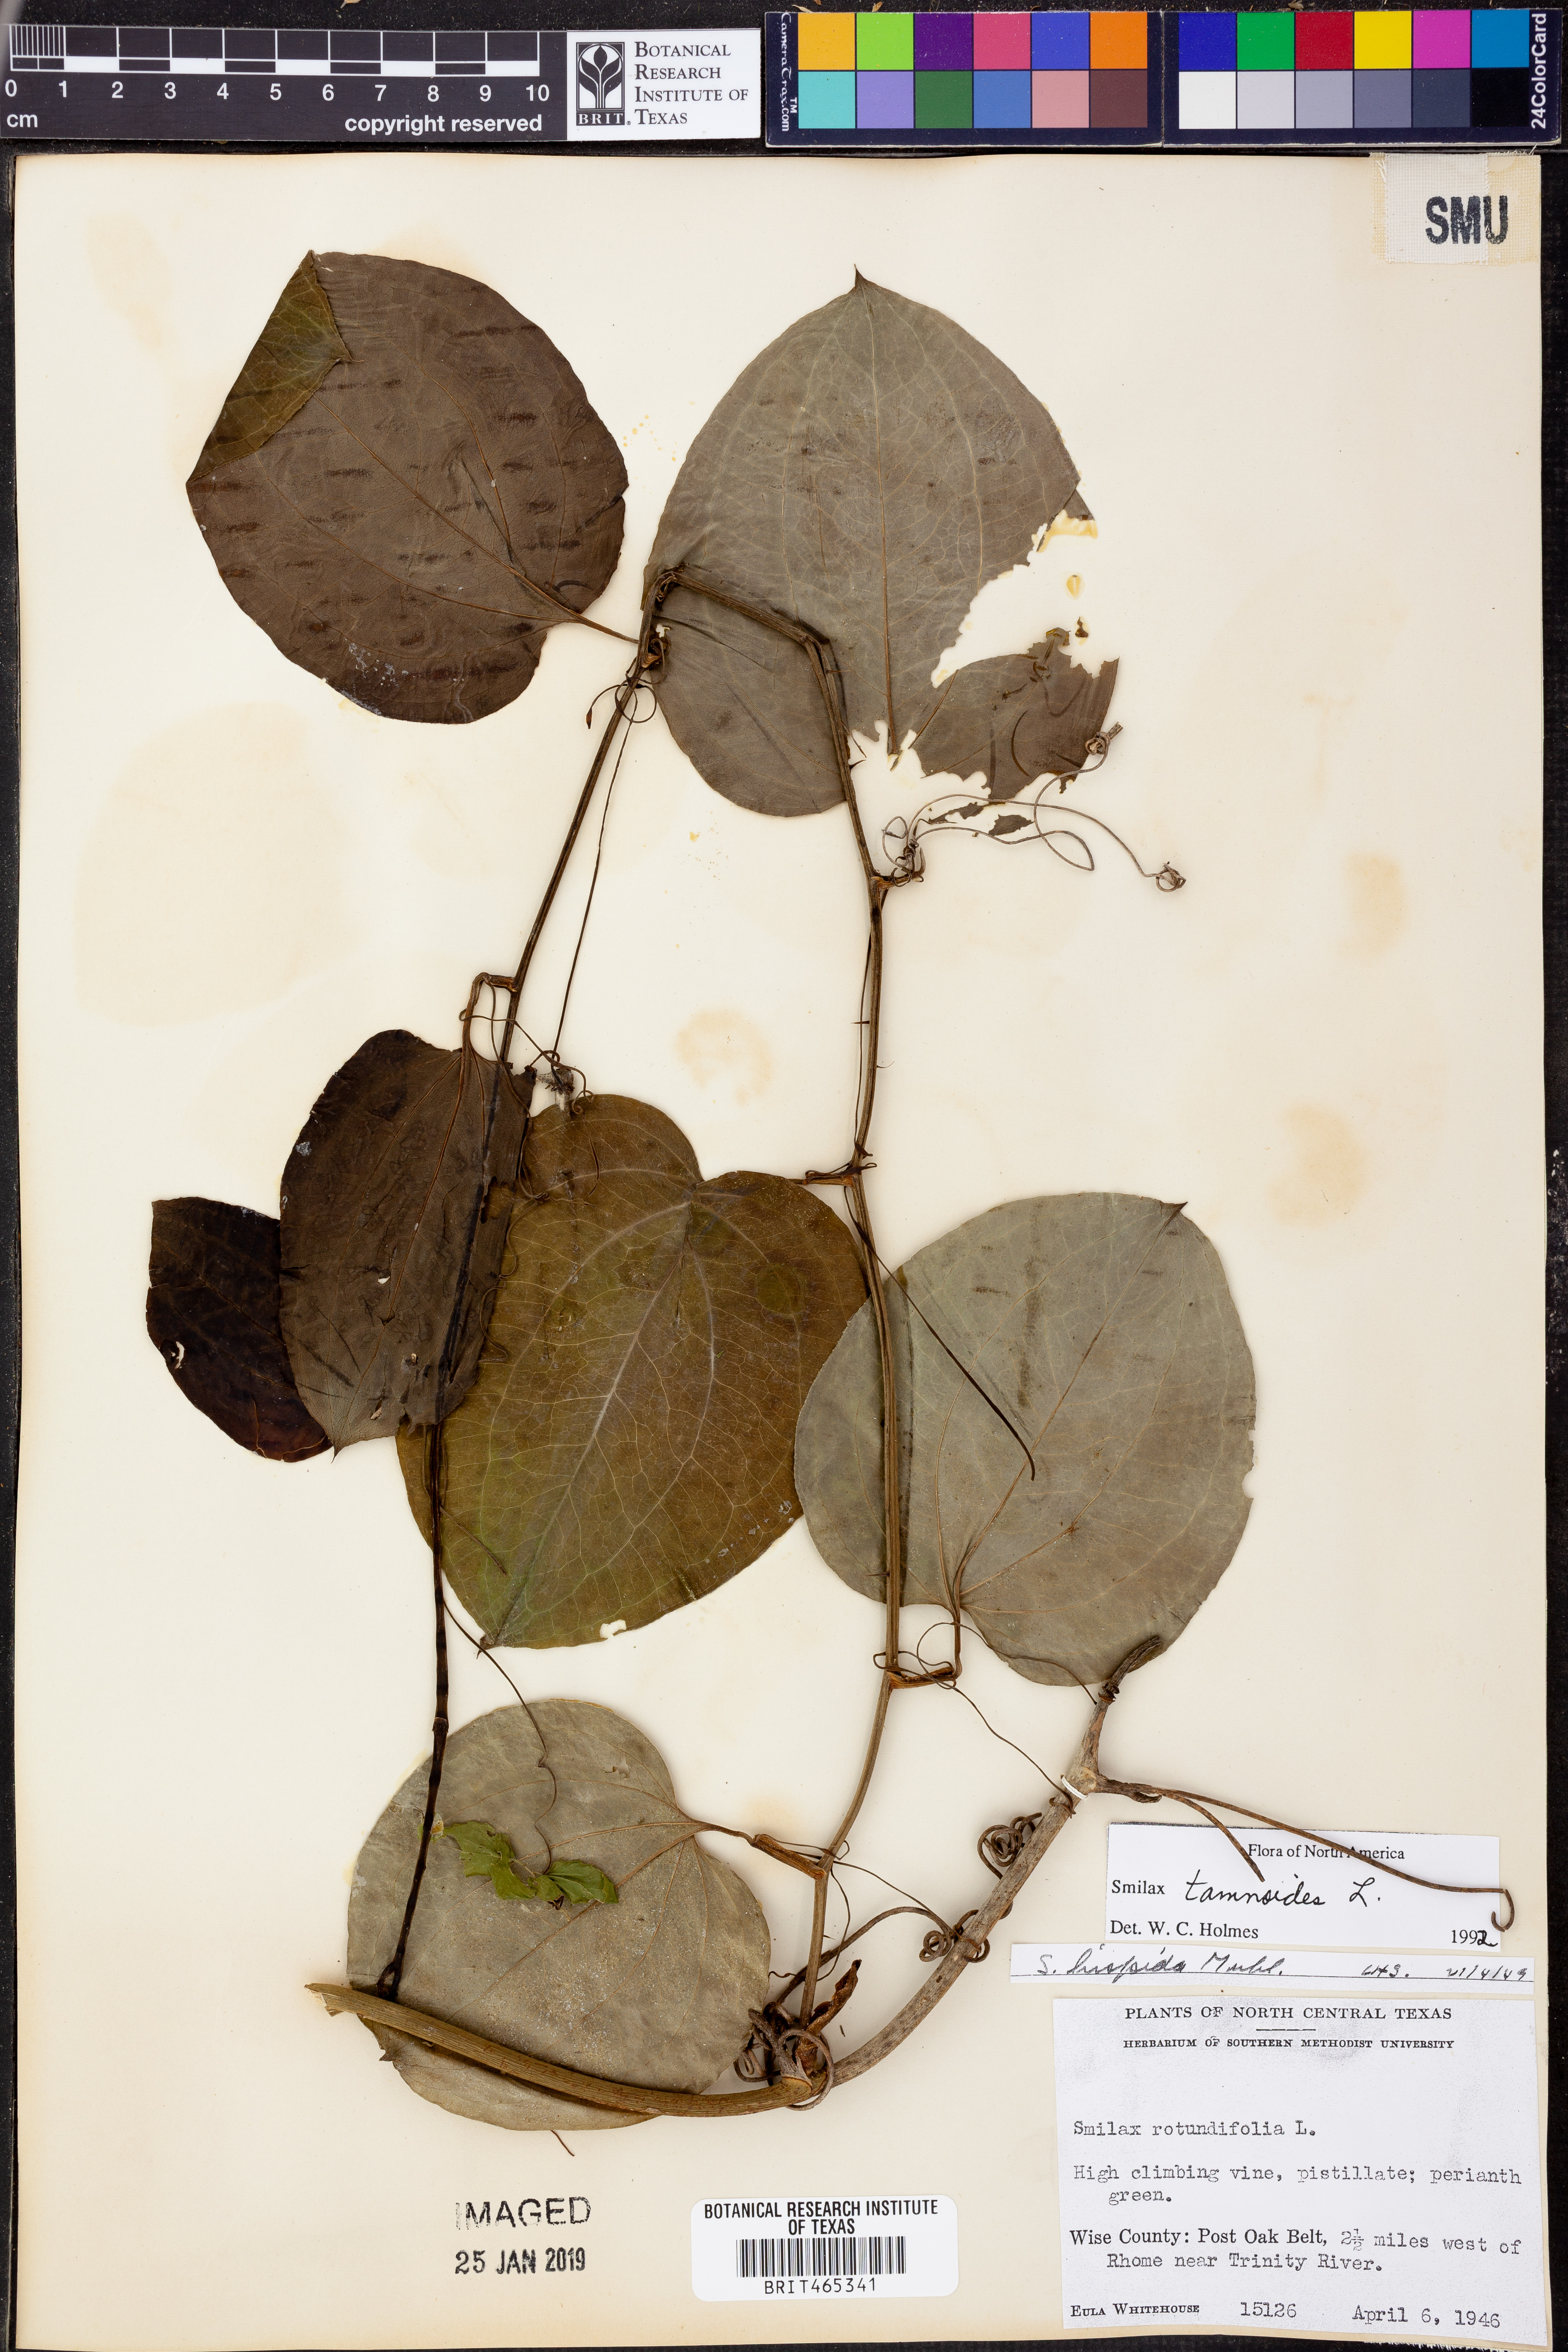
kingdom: Plantae
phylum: Tracheophyta
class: Liliopsida
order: Liliales
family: Smilacaceae
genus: Smilax
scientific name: Smilax tamnoides
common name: Hellfetter
